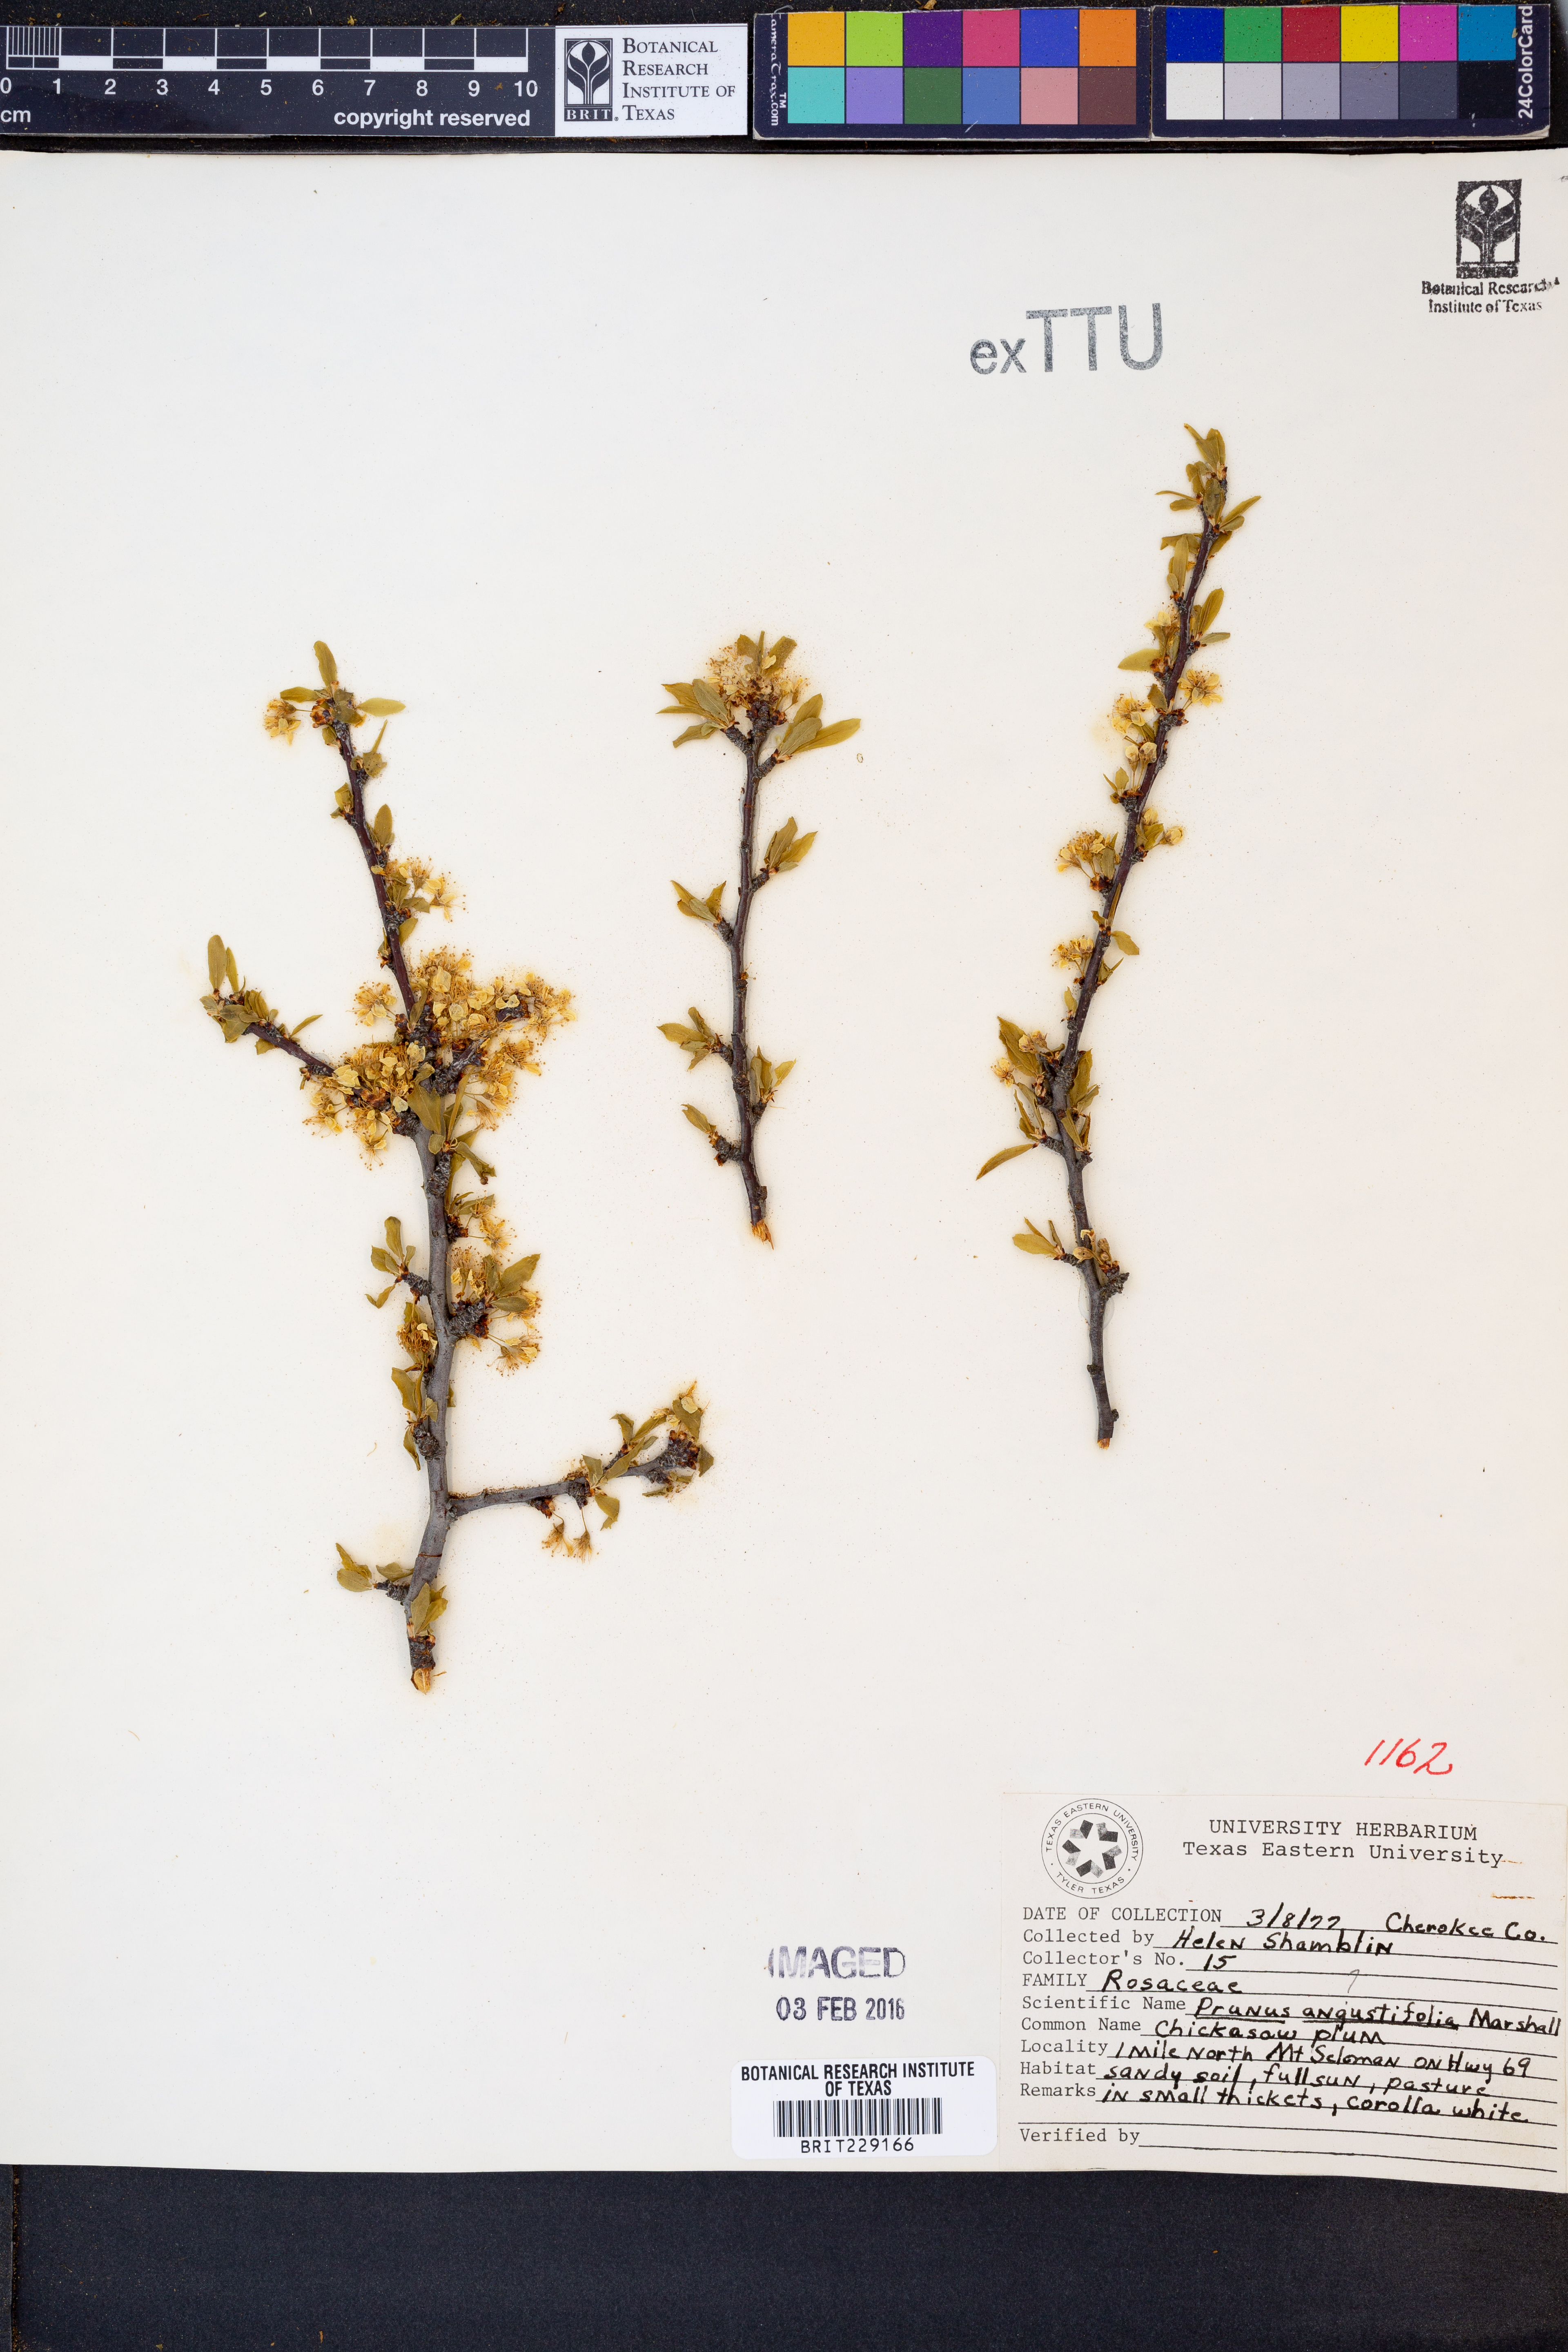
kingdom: Plantae
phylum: Tracheophyta
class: Magnoliopsida
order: Rosales
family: Rosaceae
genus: Prunus
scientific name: Prunus angustifolia
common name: Cherokee plum
